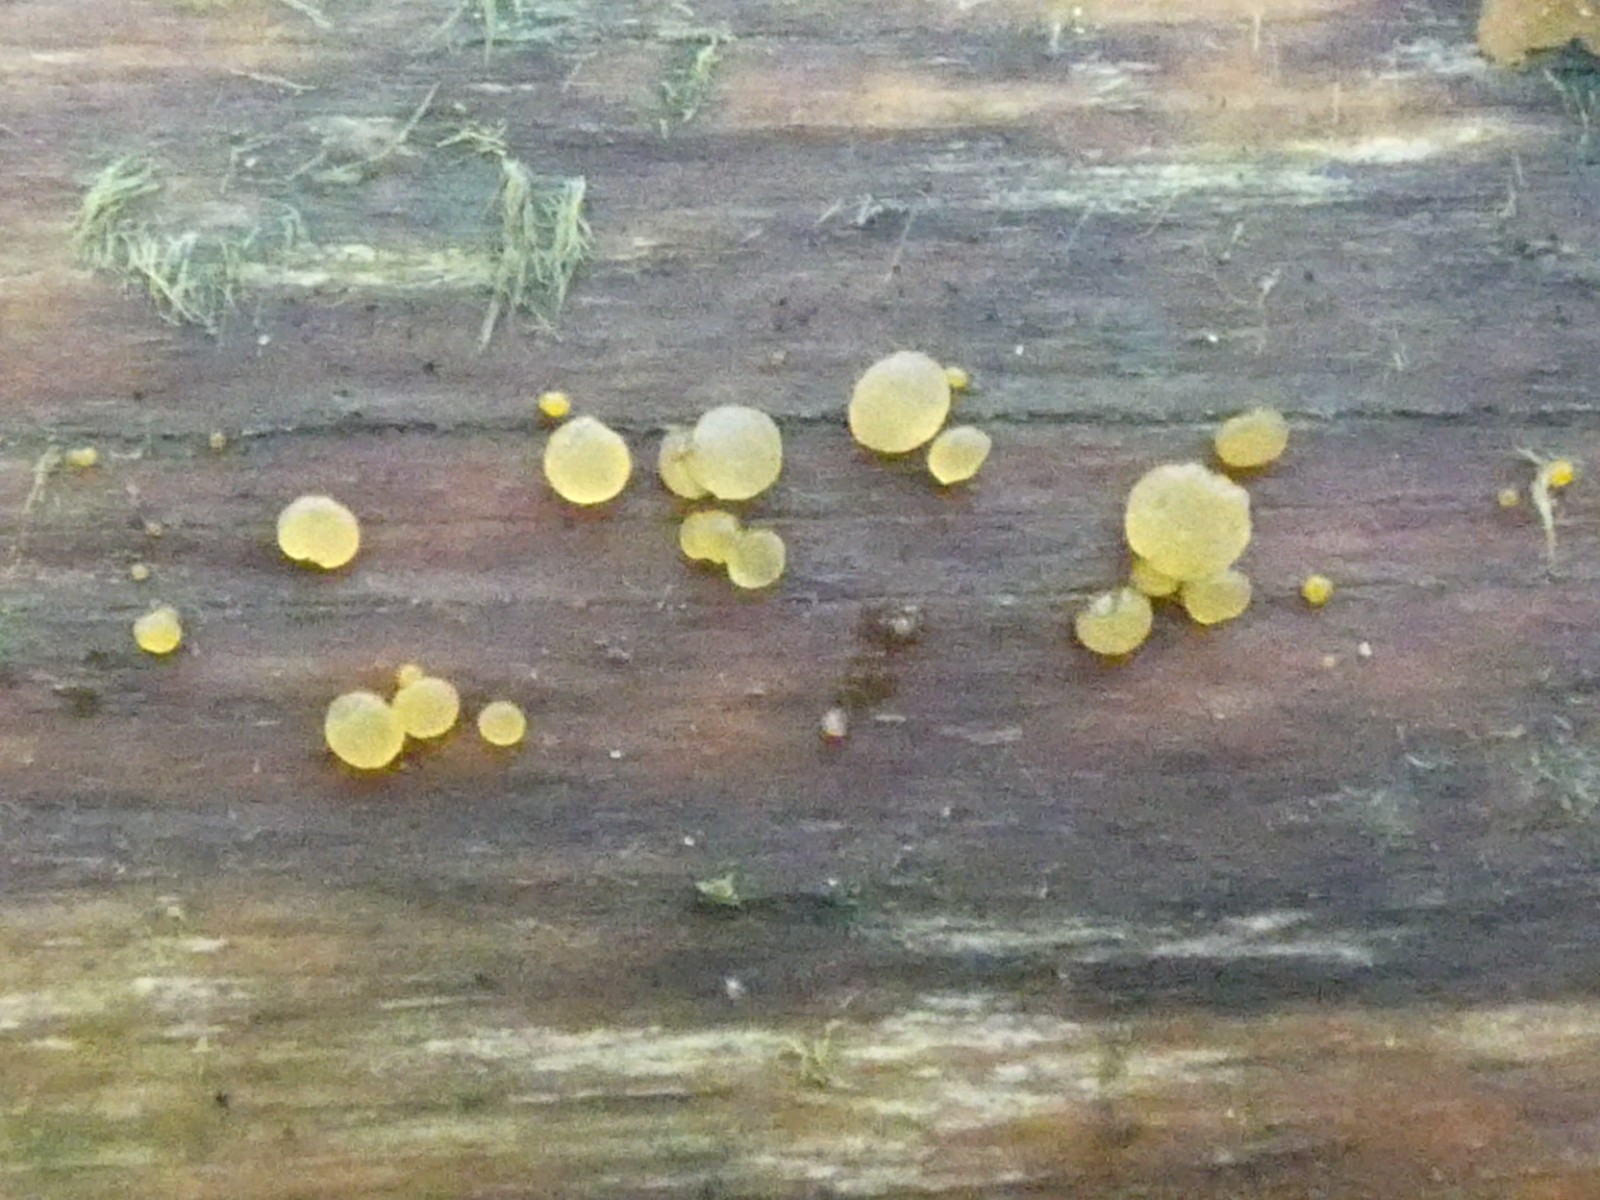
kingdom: Fungi
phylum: Basidiomycota
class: Dacrymycetes
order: Dacrymycetales
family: Dacrymycetaceae
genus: Dacrymyces
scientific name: Dacrymyces stillatus
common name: almindelig tåresvamp
